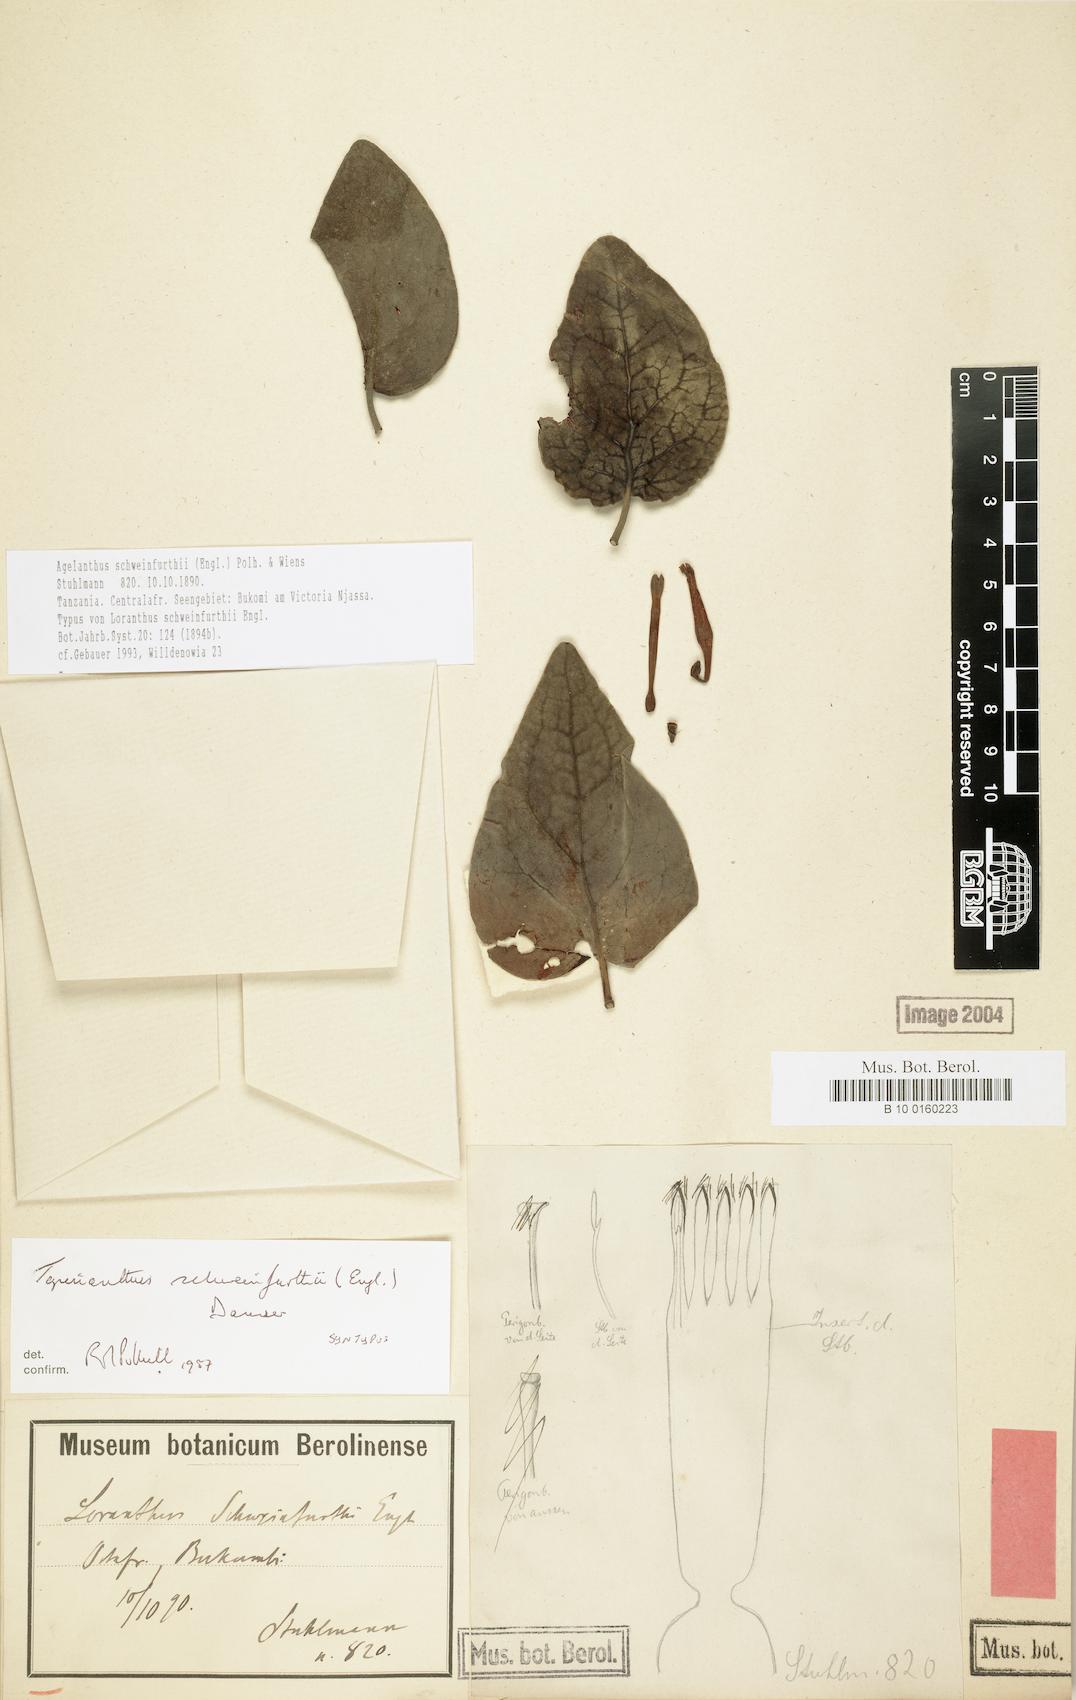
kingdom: Plantae
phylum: Tracheophyta
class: Magnoliopsida
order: Santalales
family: Loranthaceae
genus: Agelanthus
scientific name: Agelanthus schweinfurthii
